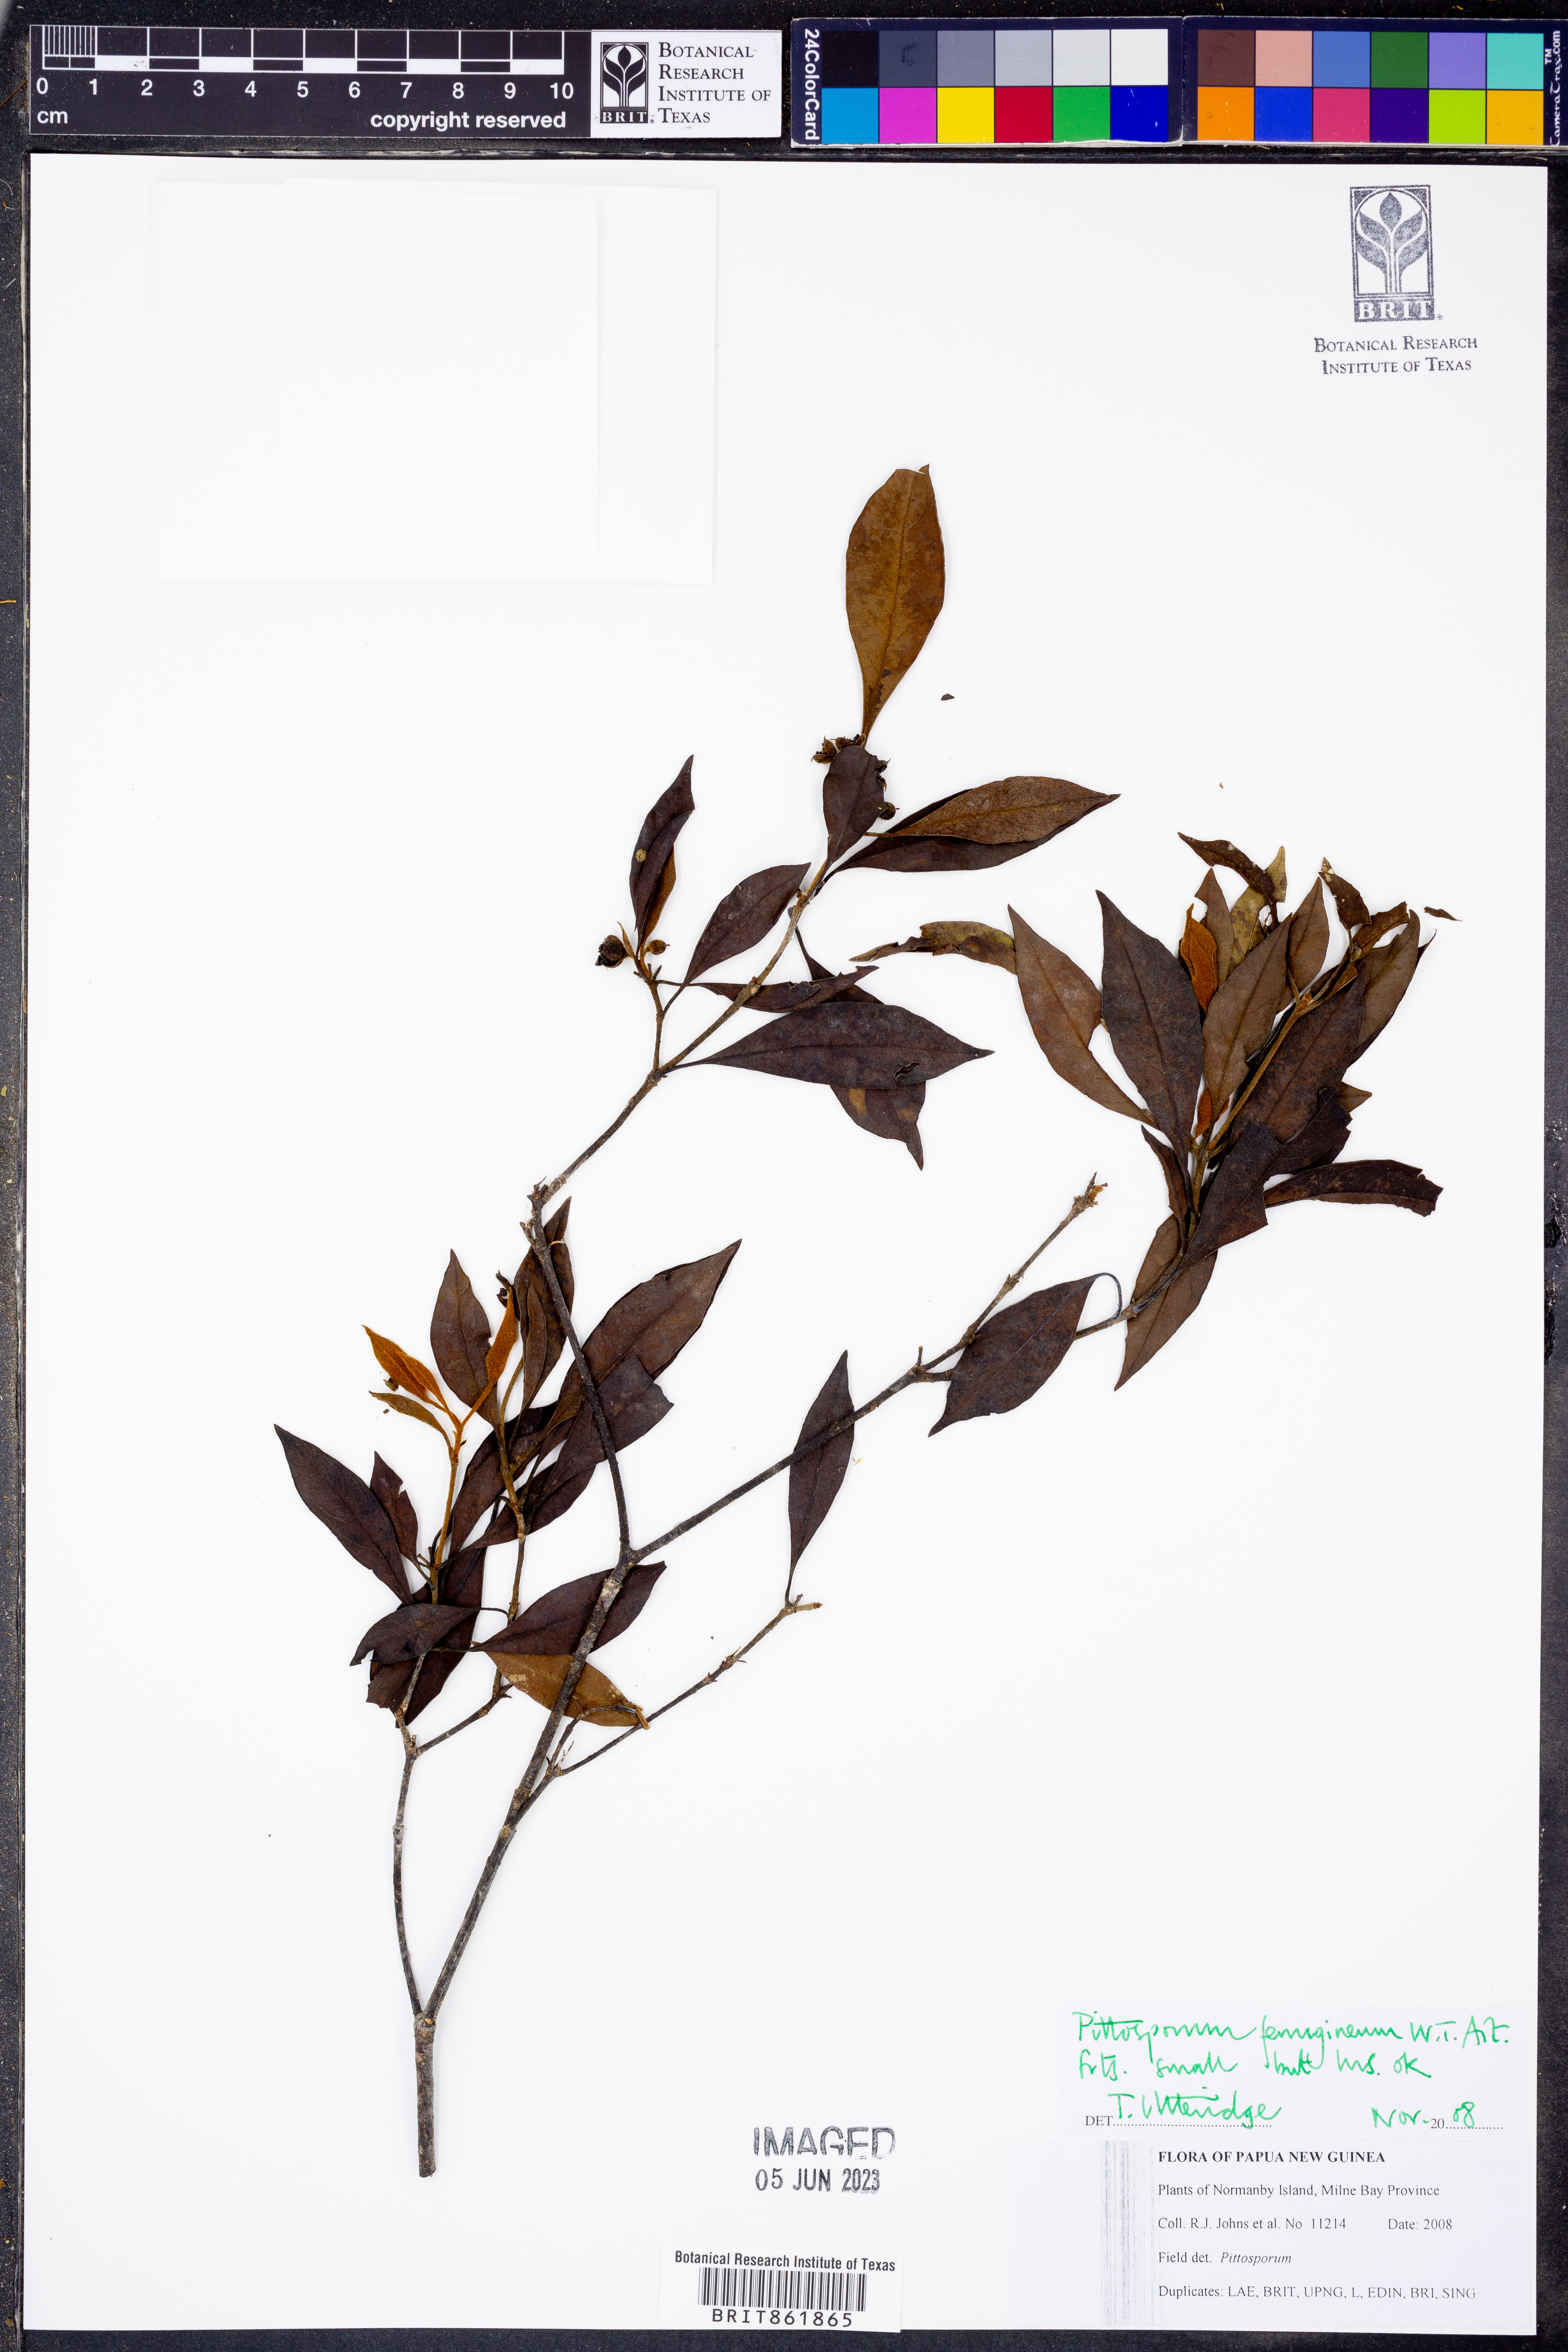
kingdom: Plantae
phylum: Tracheophyta
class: Magnoliopsida
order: Apiales
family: Pittosporaceae
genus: Pittosporum
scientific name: Pittosporum ferrugineum
